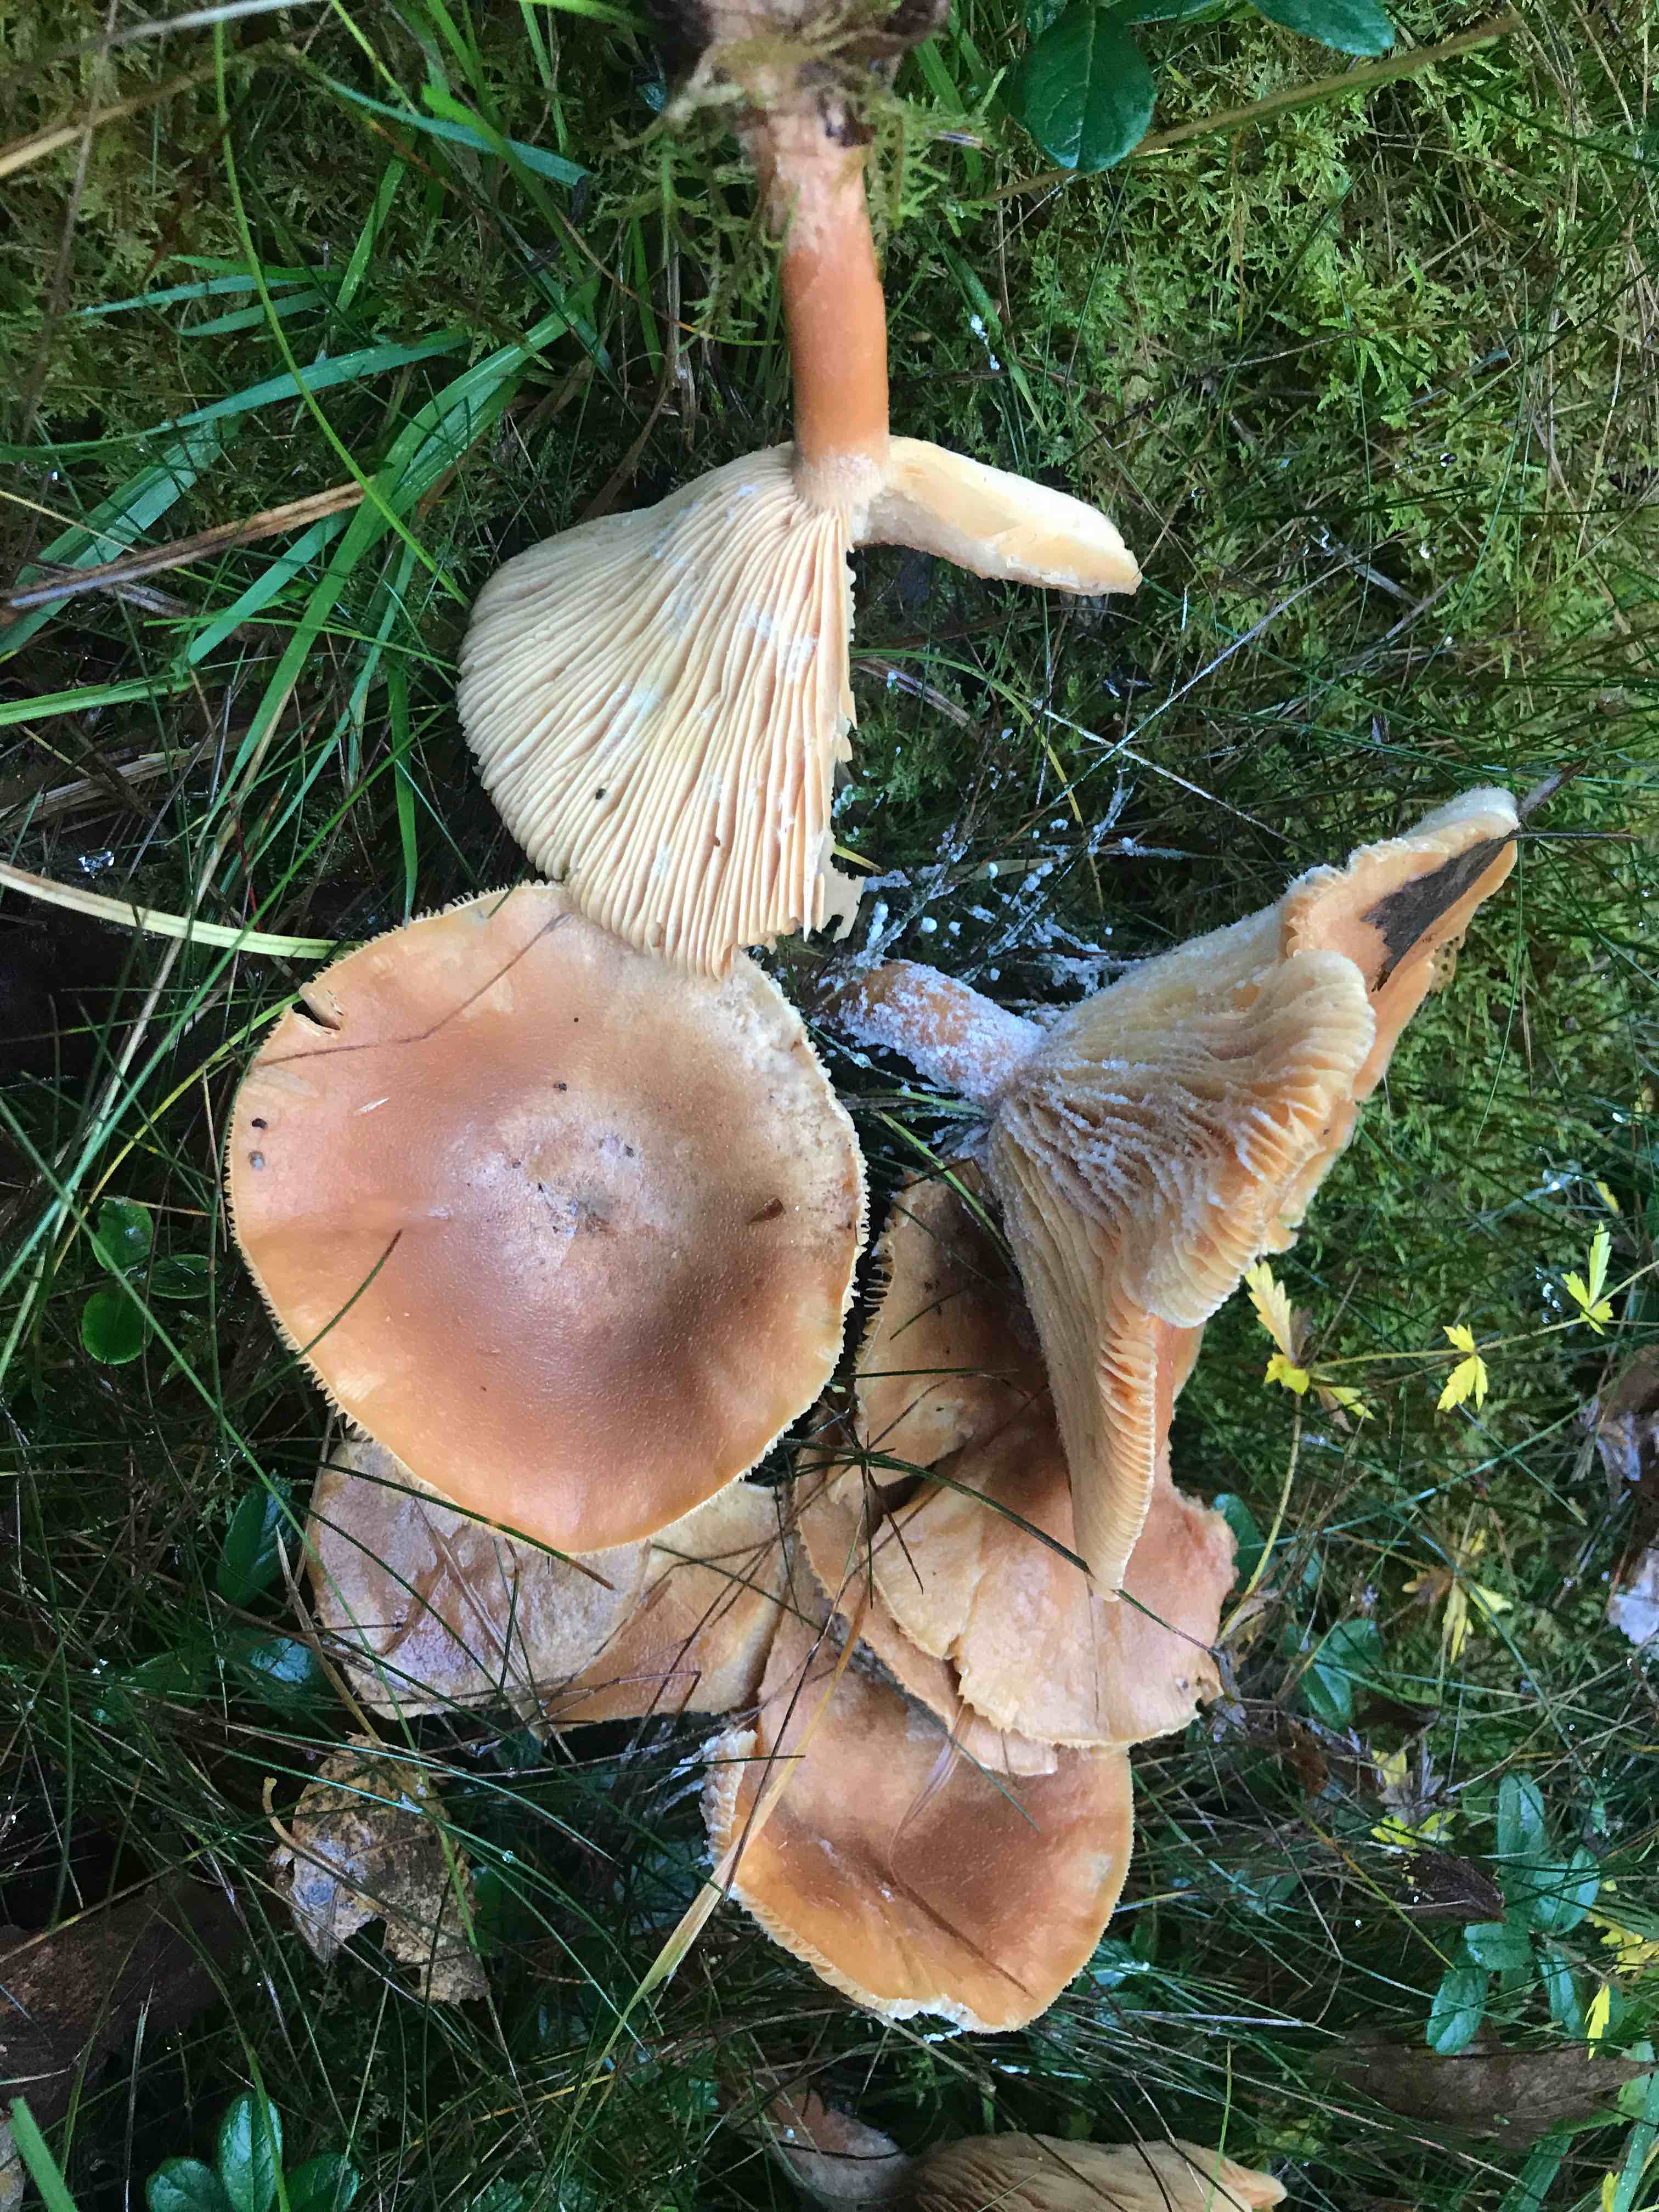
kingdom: Fungi
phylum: Basidiomycota
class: Agaricomycetes
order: Russulales
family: Russulaceae
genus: Lactarius
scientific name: Lactarius helvus
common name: mose-mælkehat
